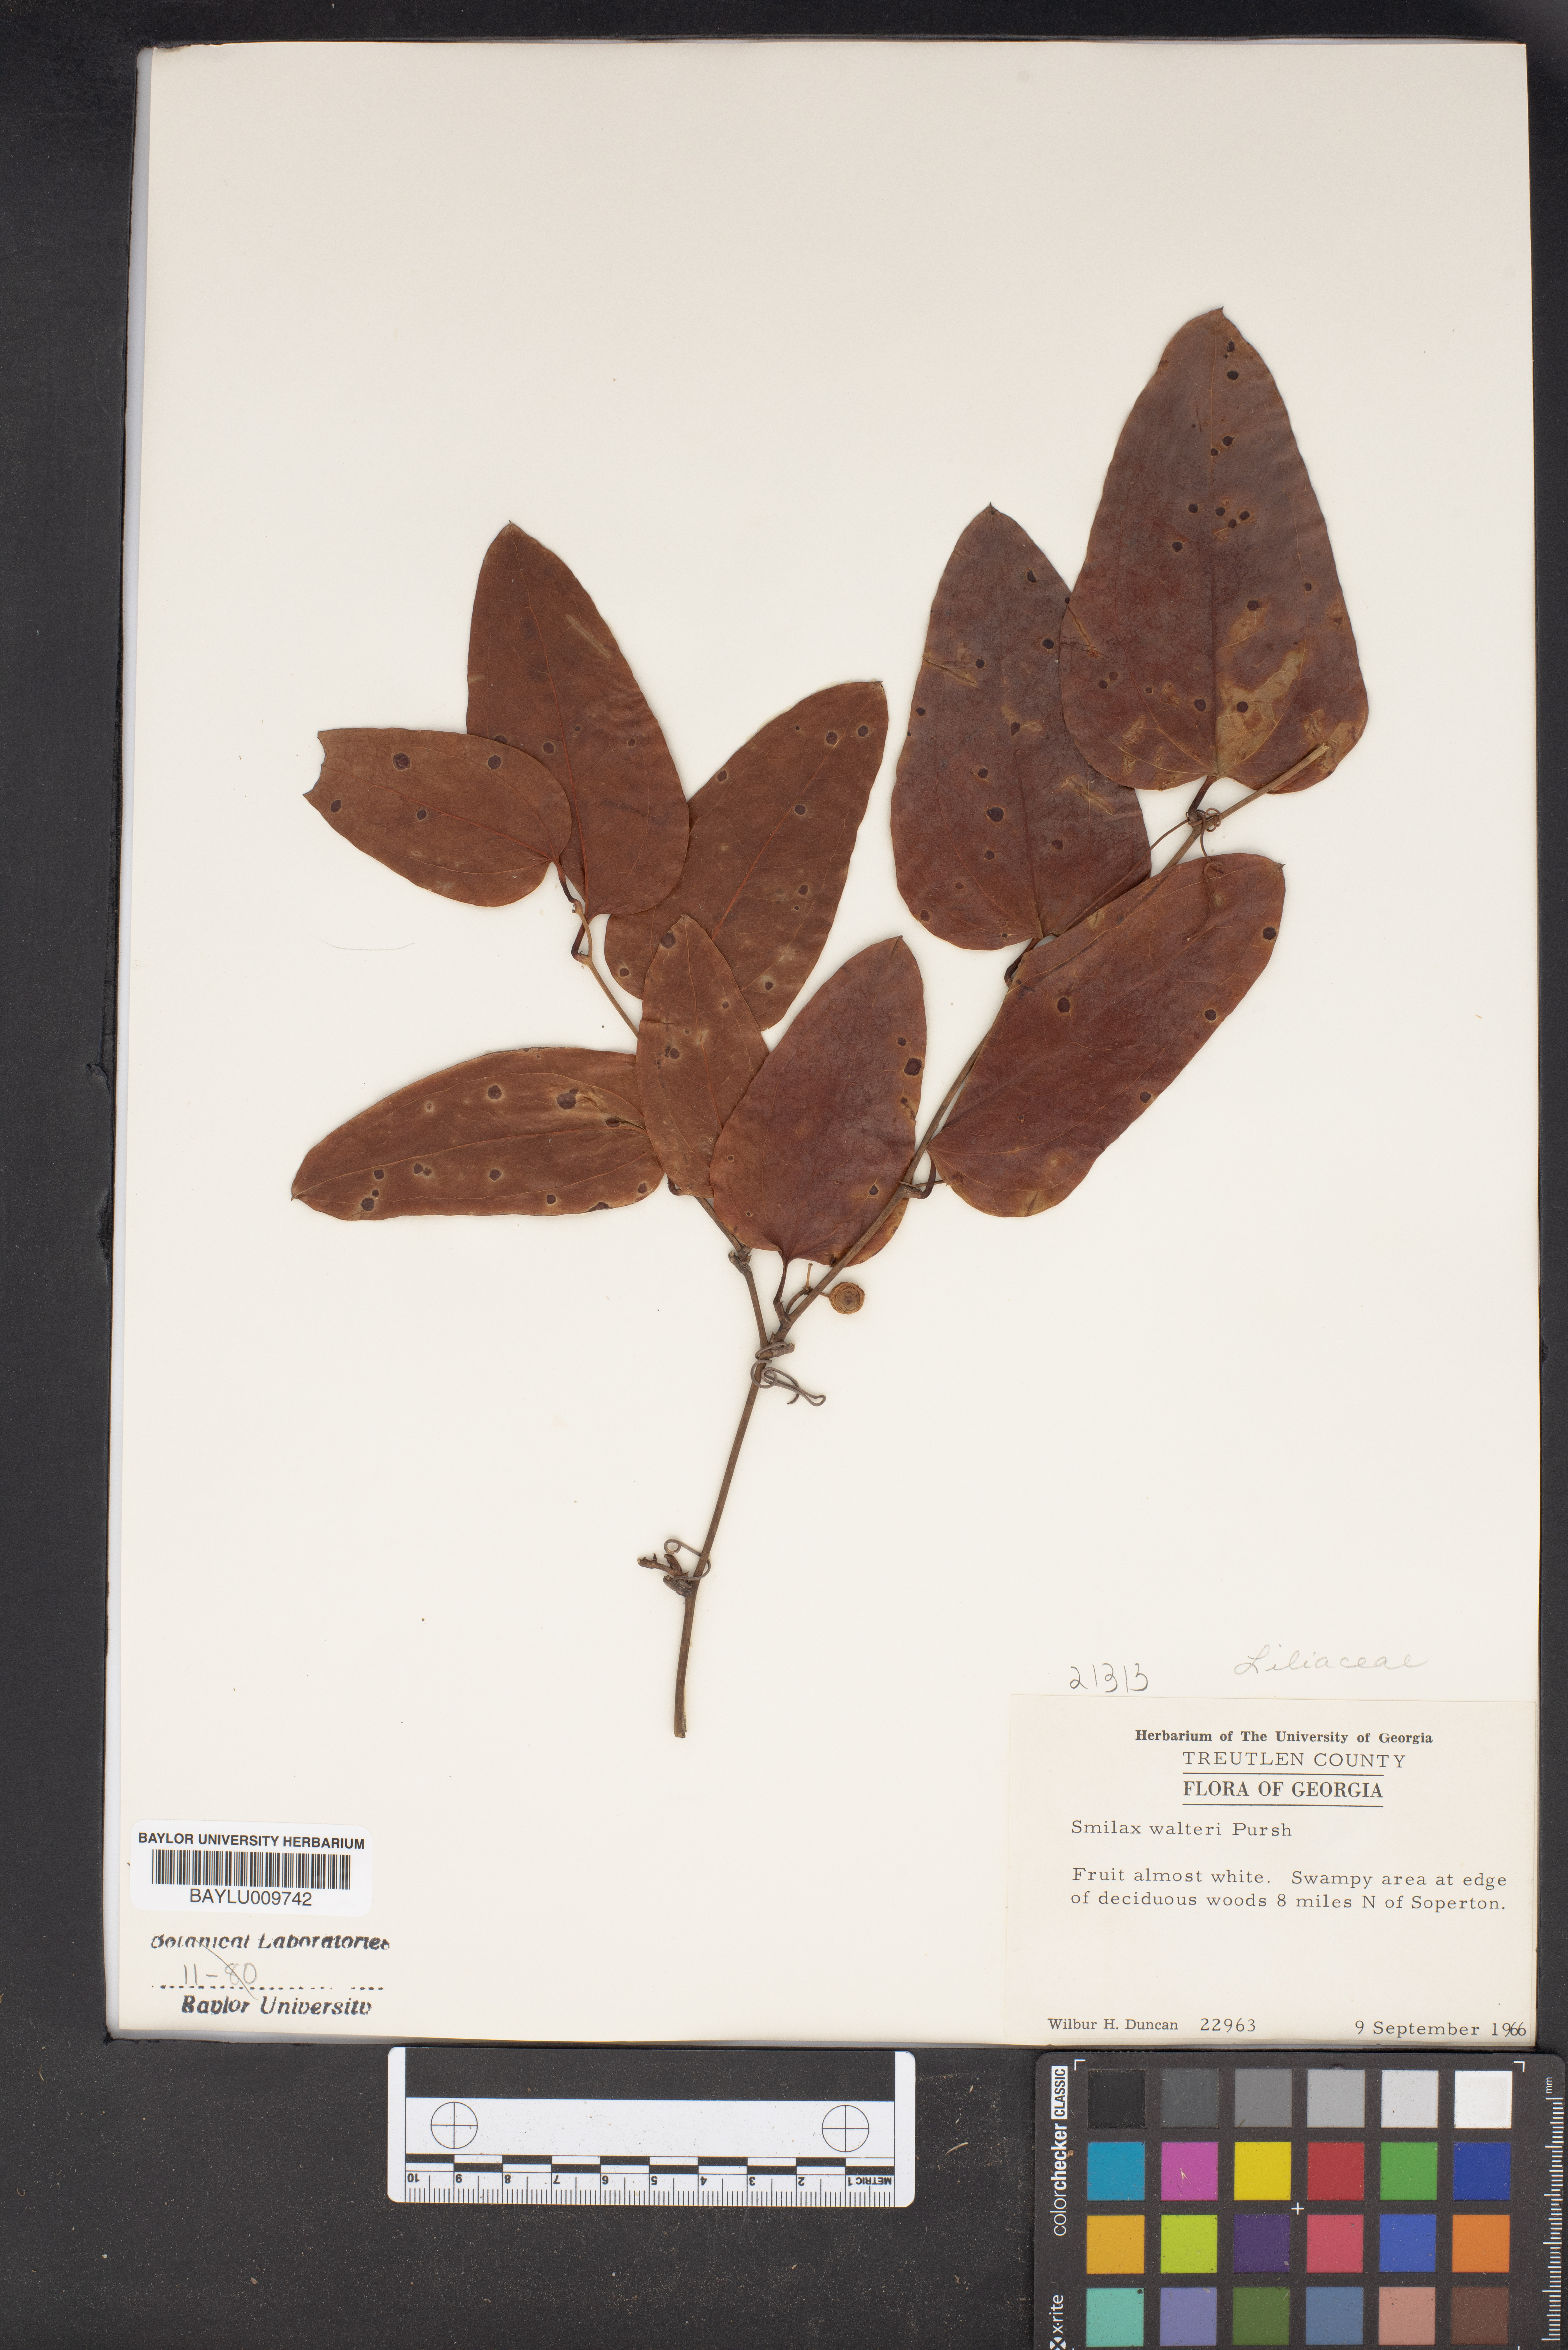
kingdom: Plantae
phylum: Tracheophyta
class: Liliopsida
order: Liliales
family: Smilacaceae
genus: Smilax
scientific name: Smilax walteri
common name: Coral greenbrier
